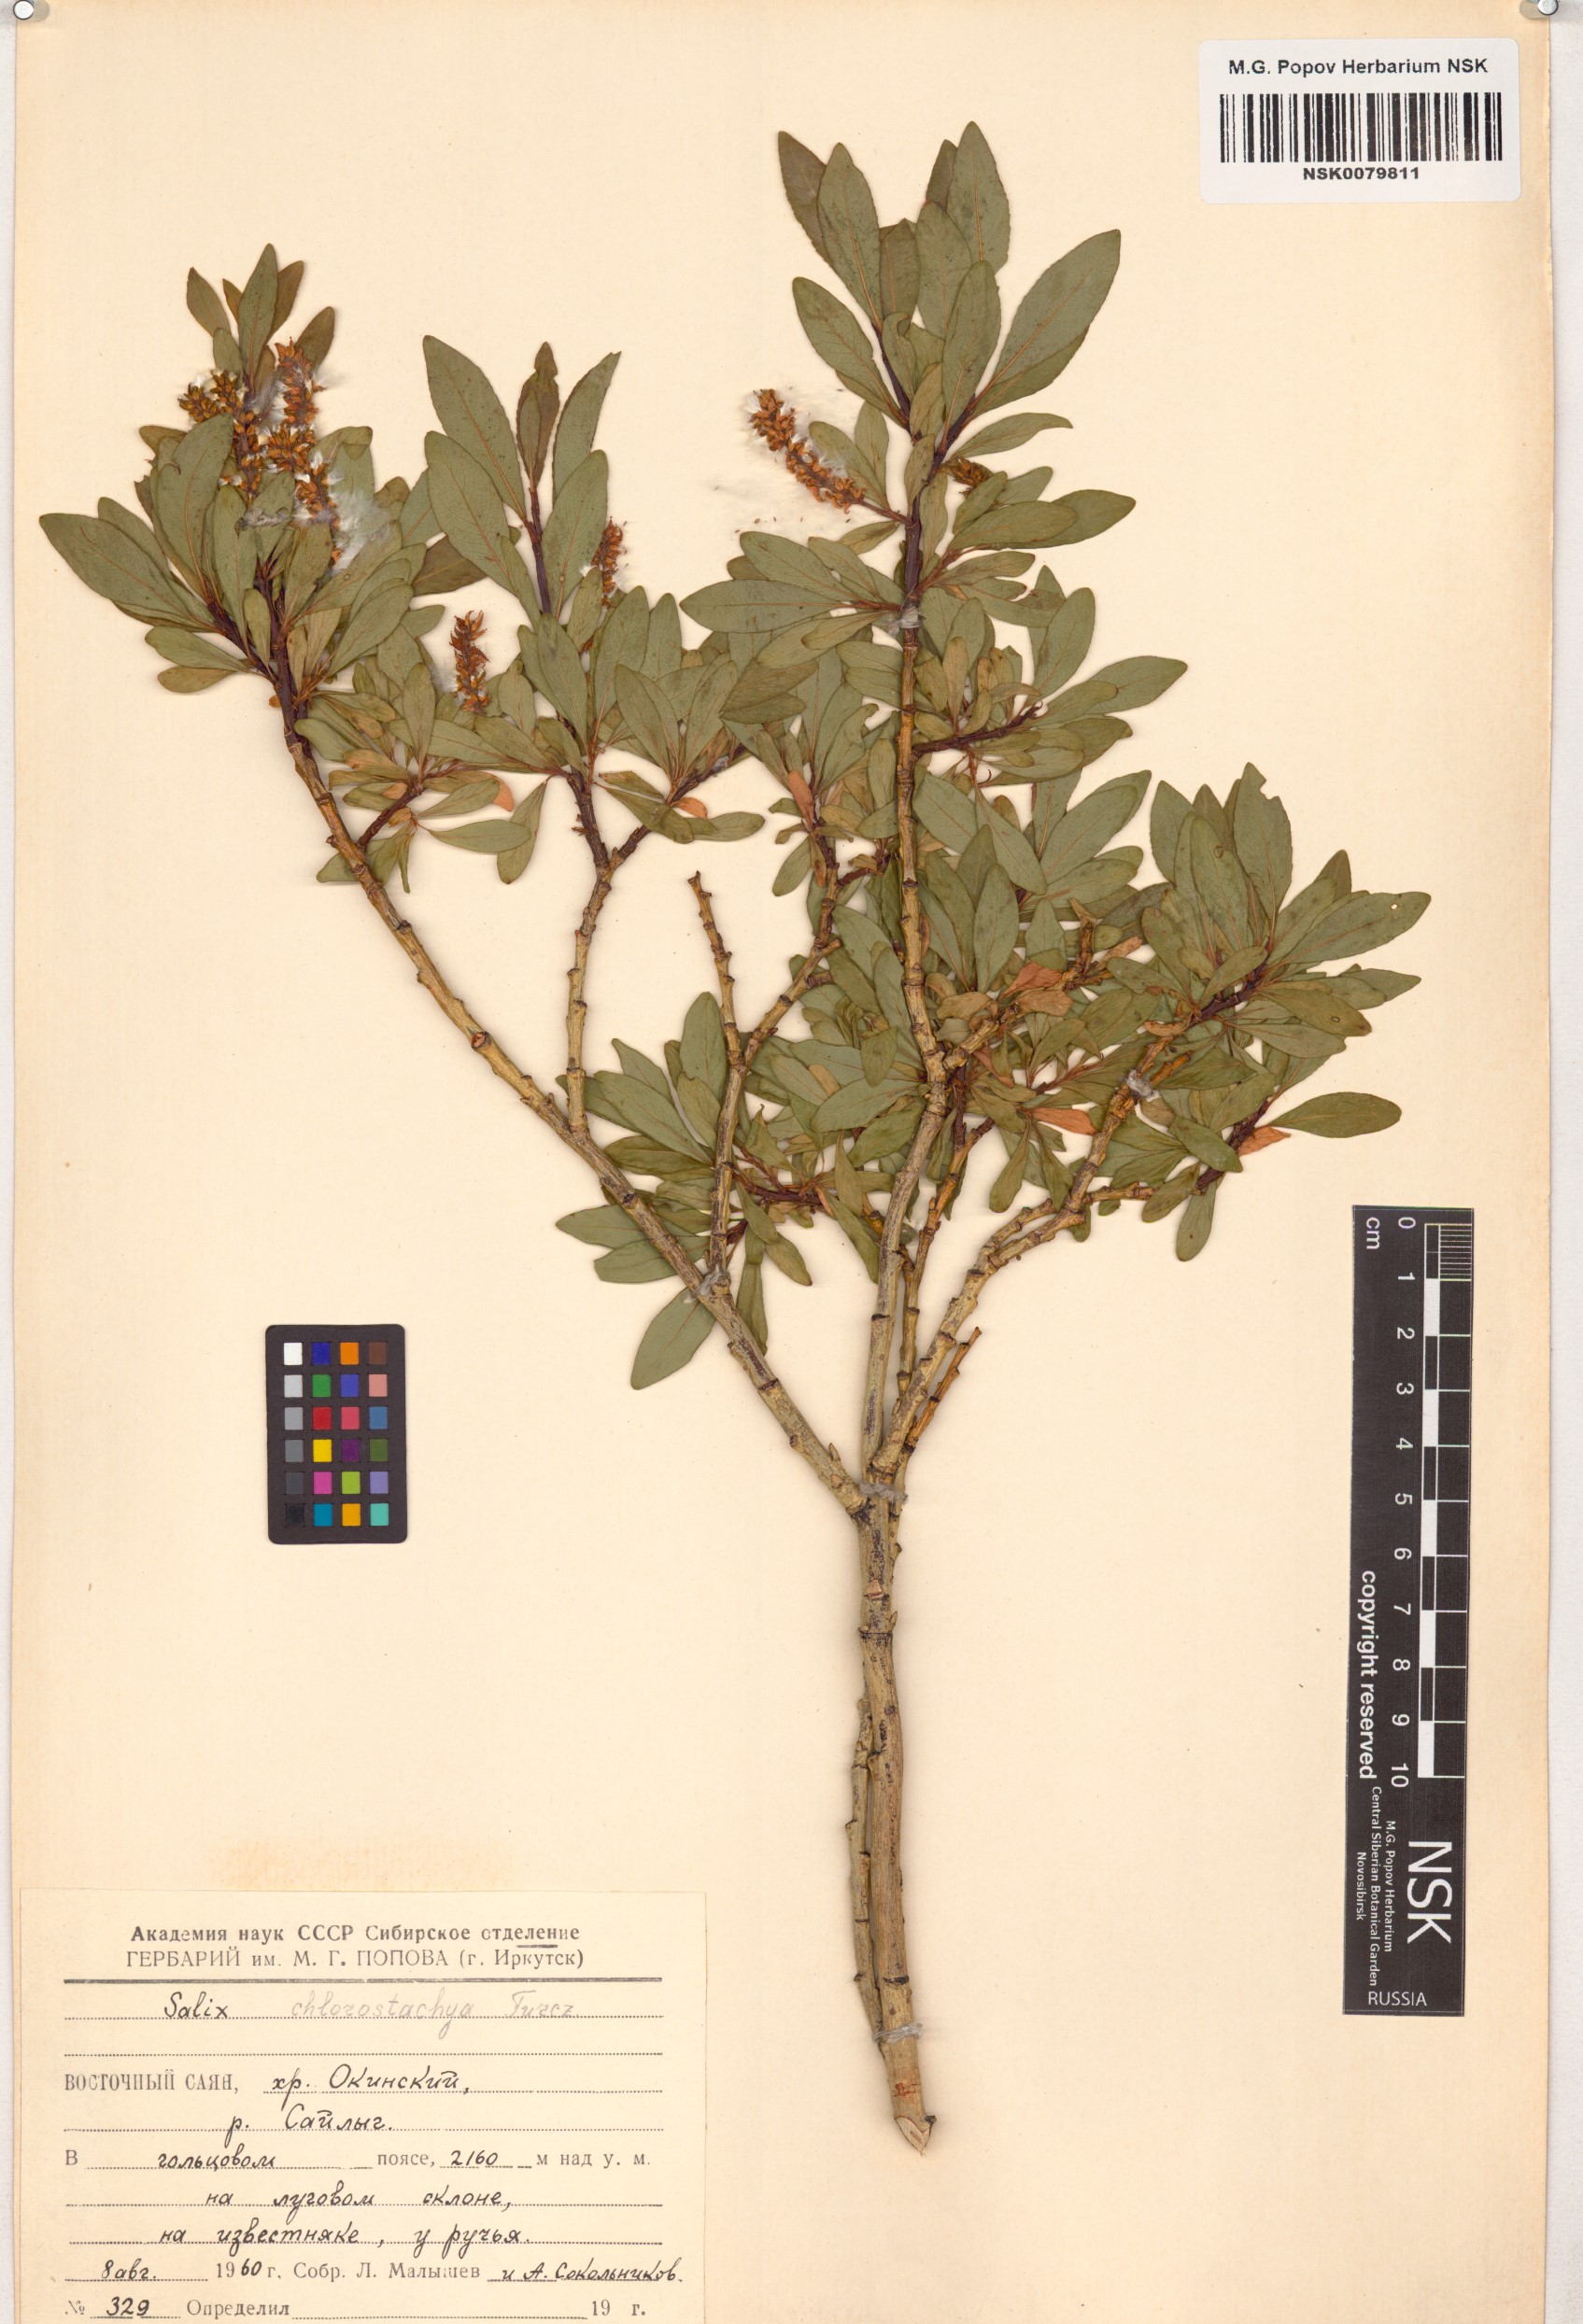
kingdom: Plantae
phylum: Tracheophyta
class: Magnoliopsida
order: Malpighiales
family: Salicaceae
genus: Salix
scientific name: Salix rhamnifolia
